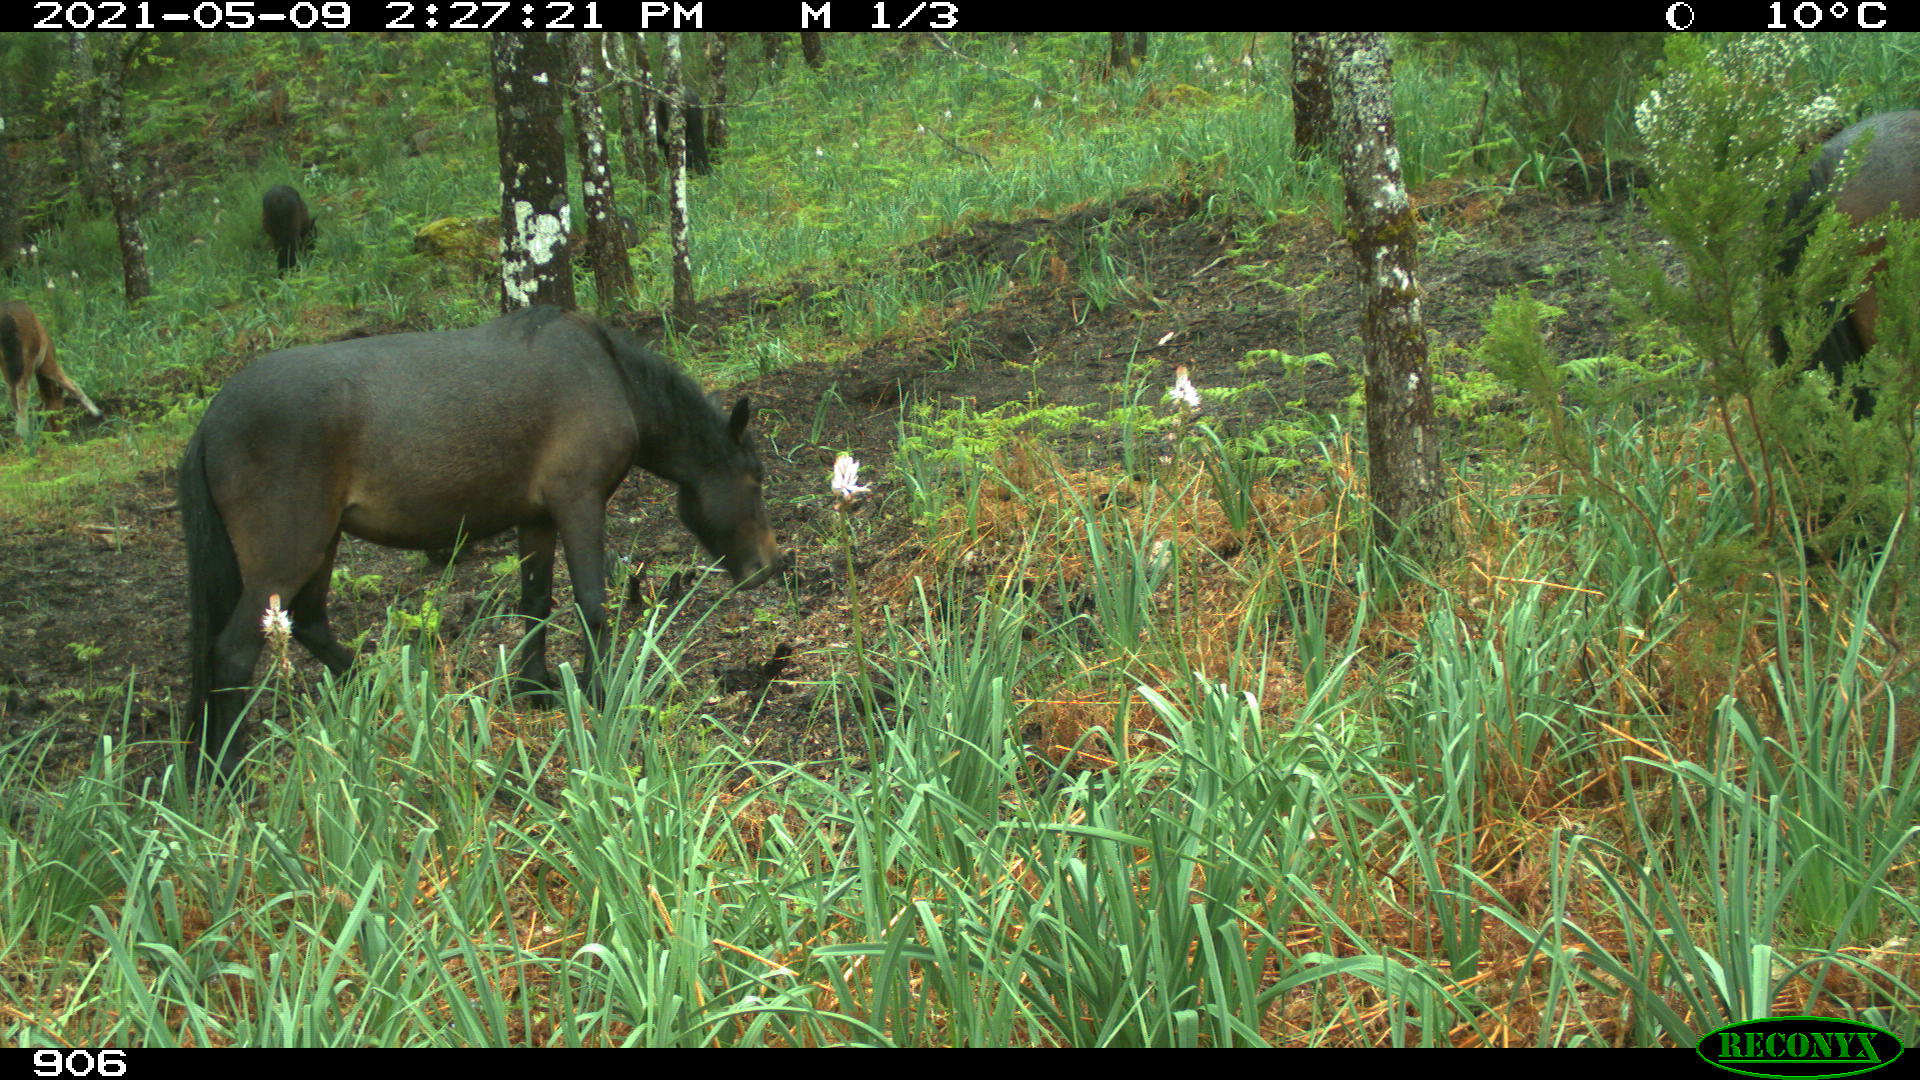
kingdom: Animalia
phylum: Chordata
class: Mammalia
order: Perissodactyla
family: Equidae
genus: Equus
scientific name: Equus caballus
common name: Horse
